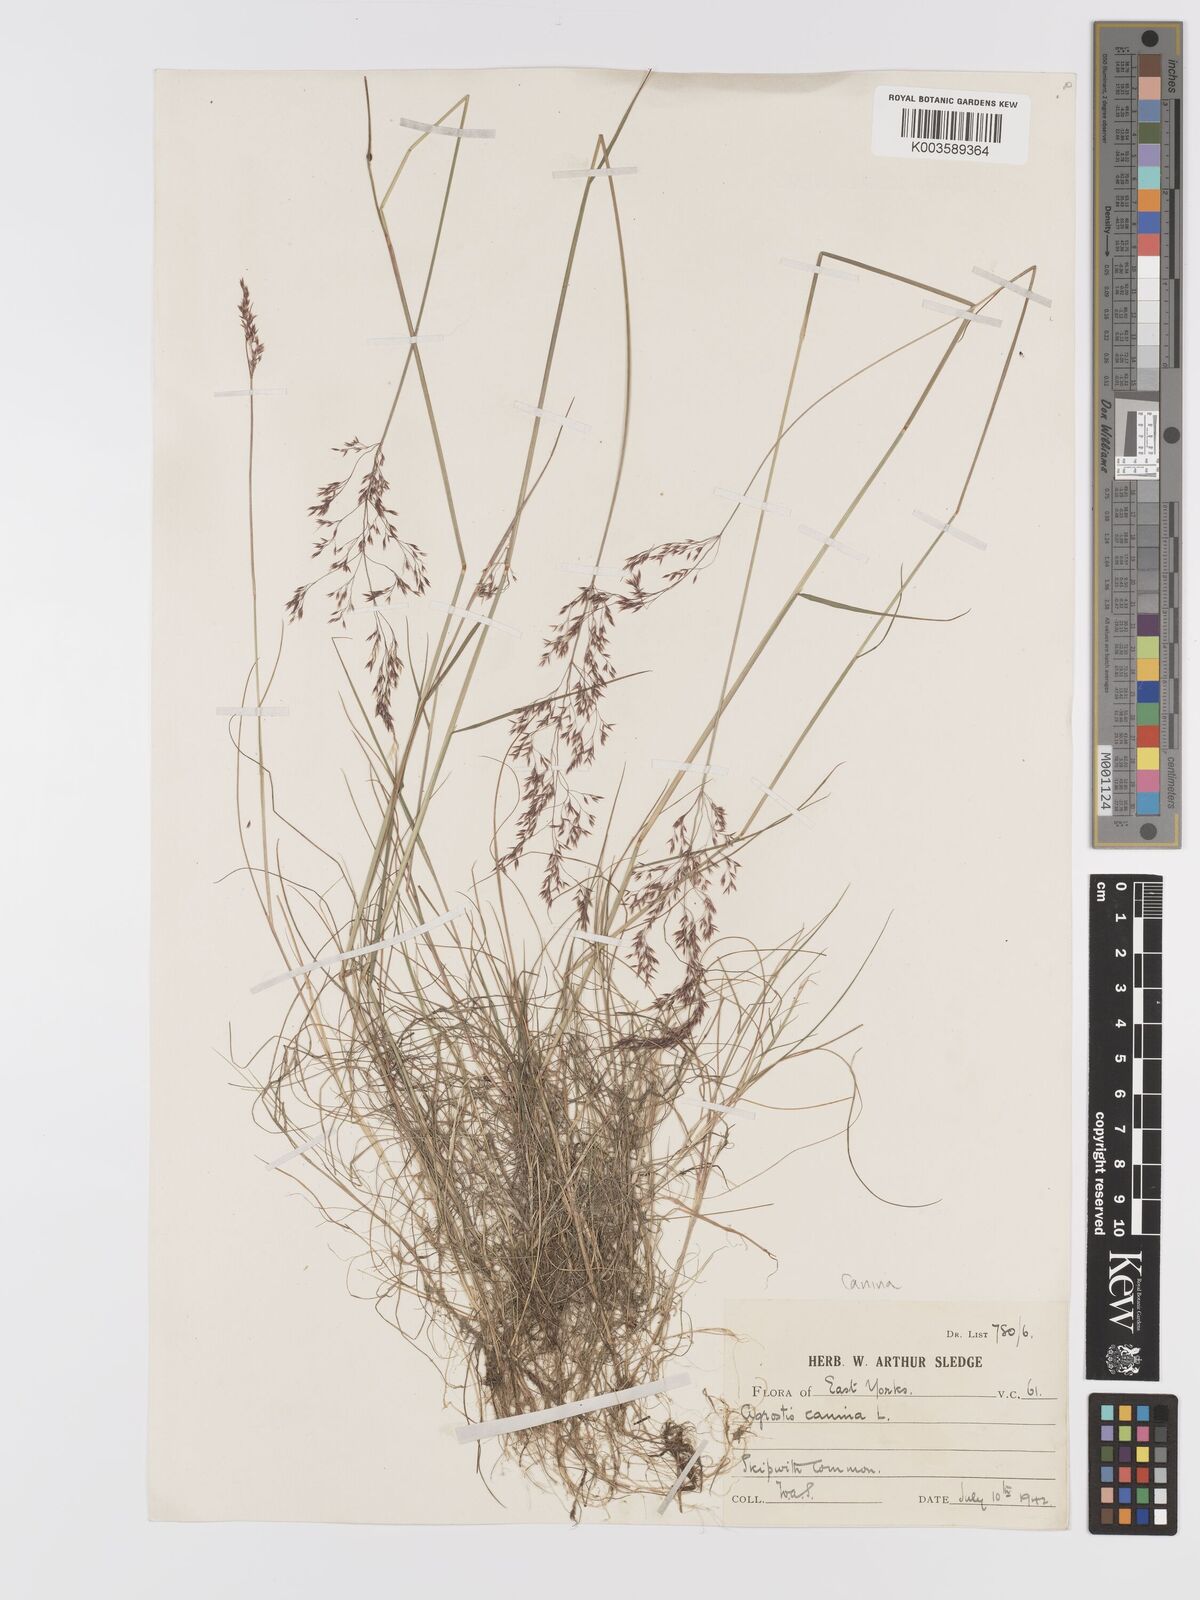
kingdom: Plantae
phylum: Tracheophyta
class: Liliopsida
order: Poales
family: Poaceae
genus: Agrostis
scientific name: Agrostis canina
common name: Velvet bent
